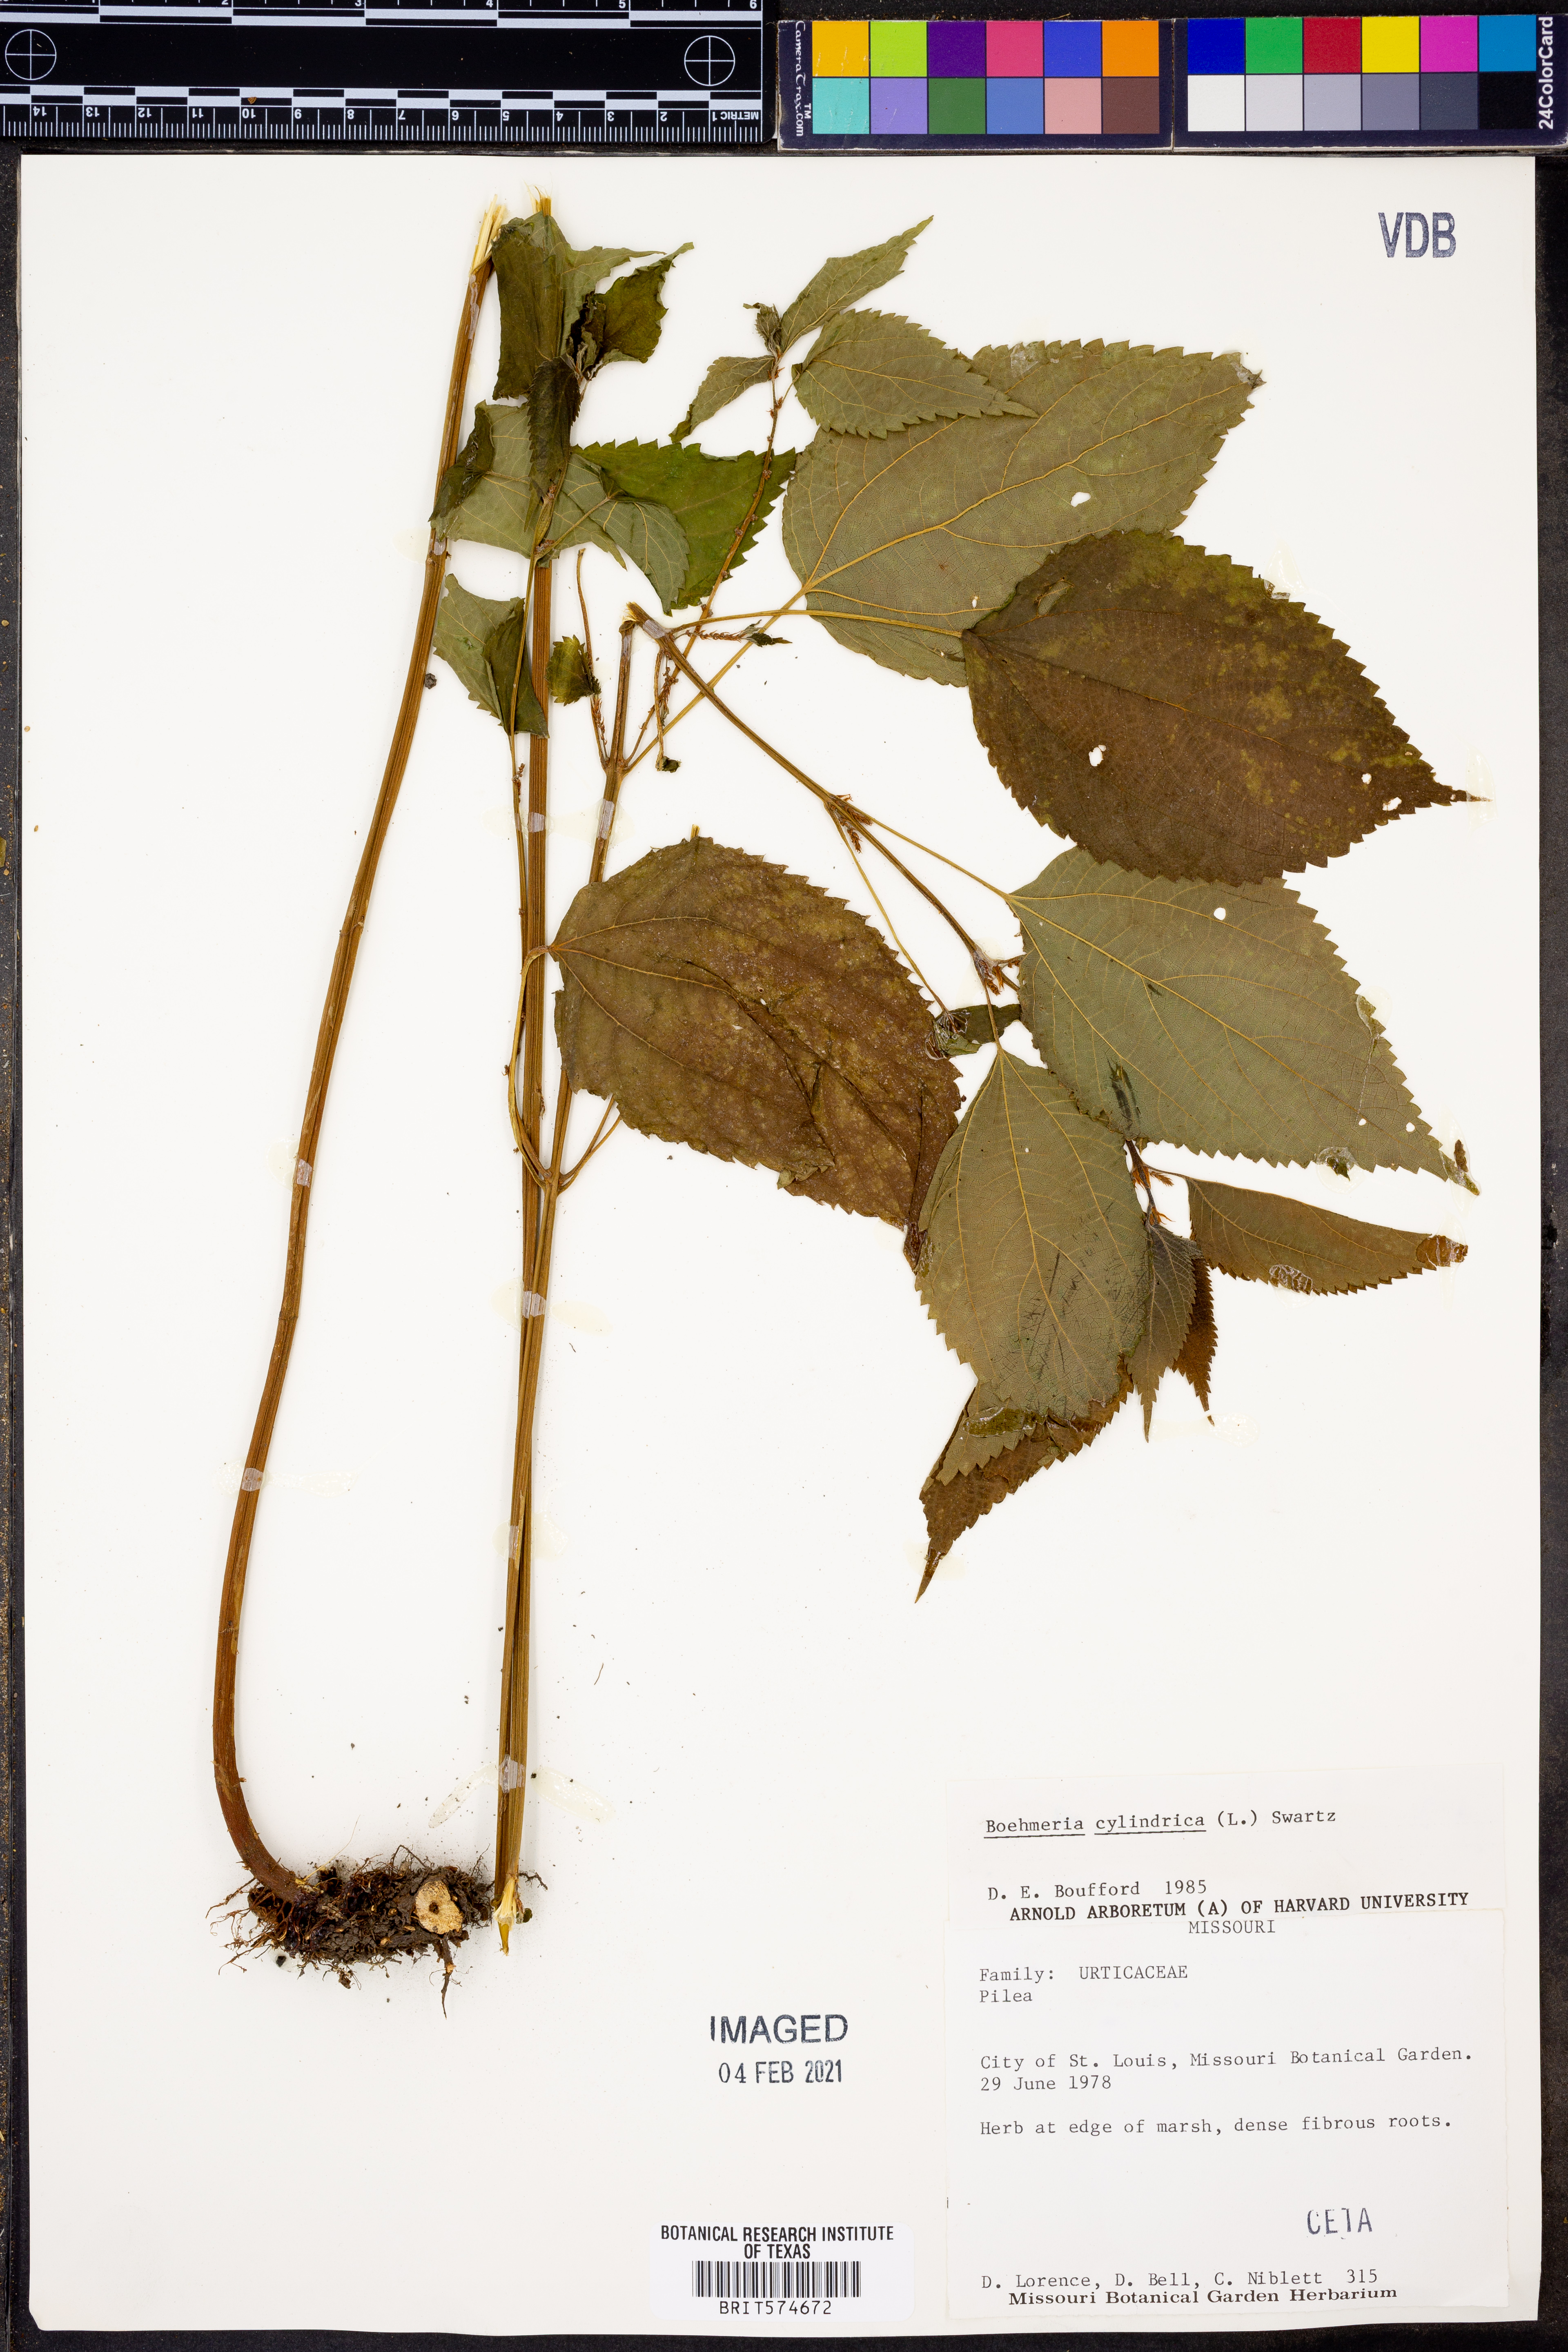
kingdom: Plantae
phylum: Tracheophyta
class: Magnoliopsida
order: Rosales
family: Urticaceae
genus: Boehmeria
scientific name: Boehmeria cylindrica
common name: Bog-hemp
